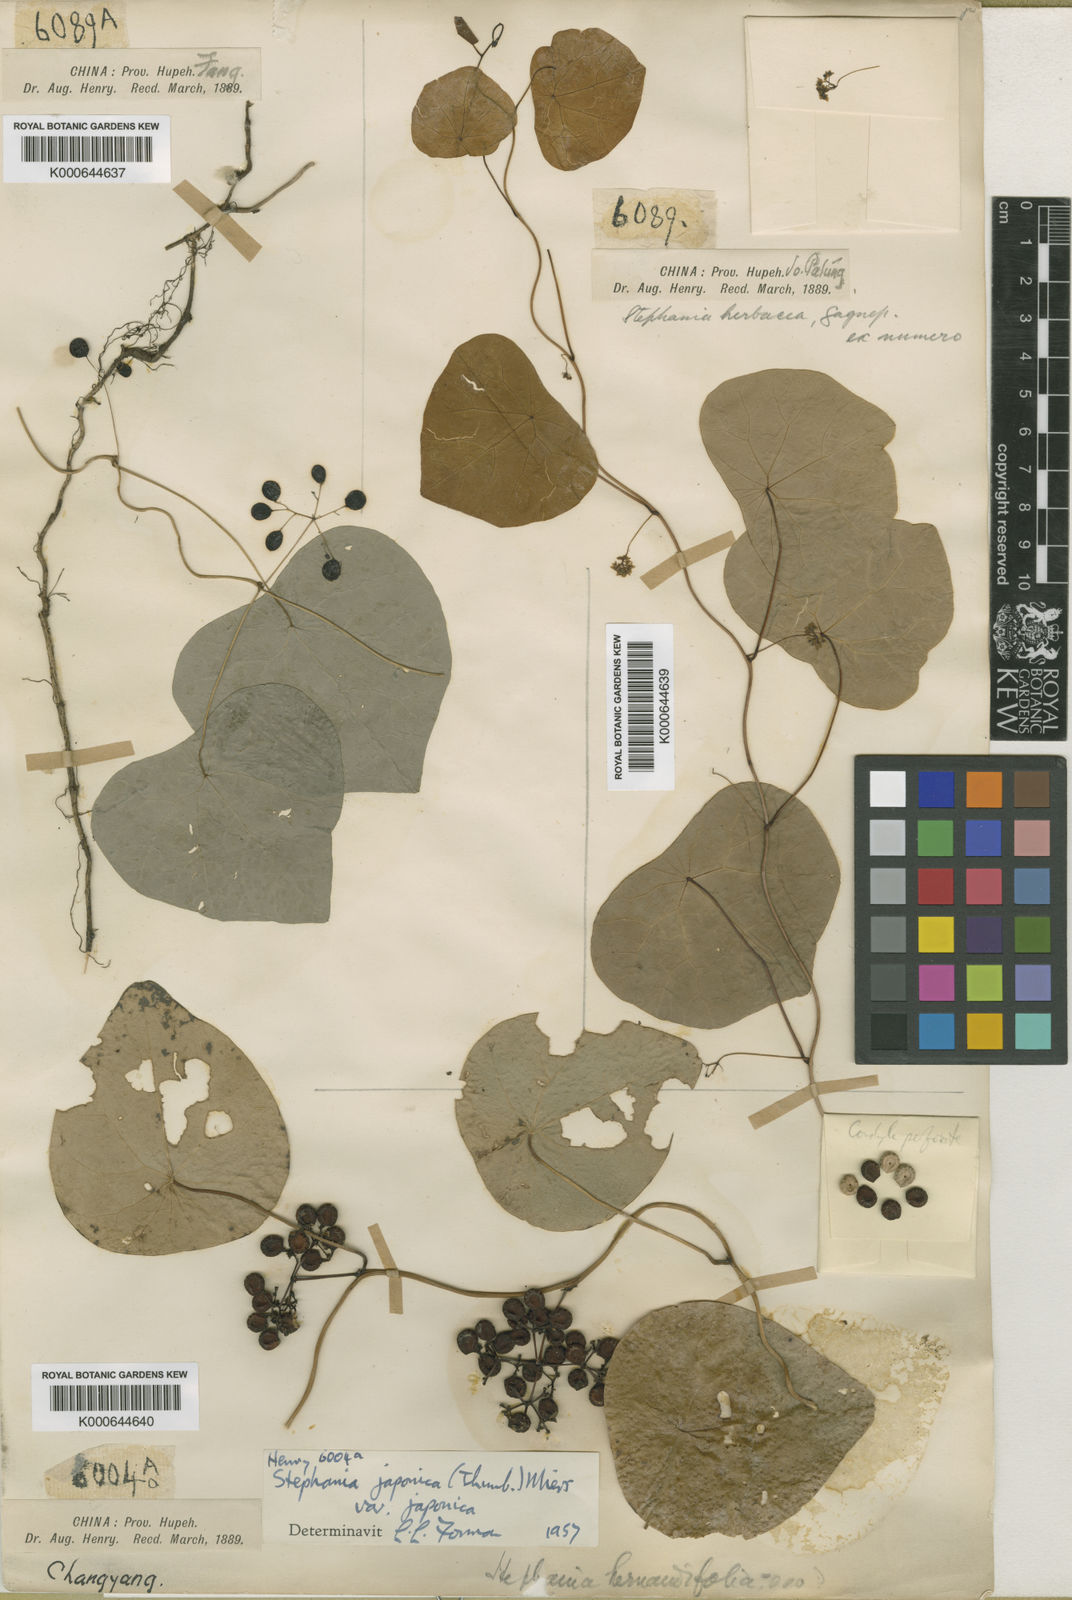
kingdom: Plantae
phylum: Tracheophyta
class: Magnoliopsida
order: Ranunculales
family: Menispermaceae
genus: Stephania
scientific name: Stephania herbacea
